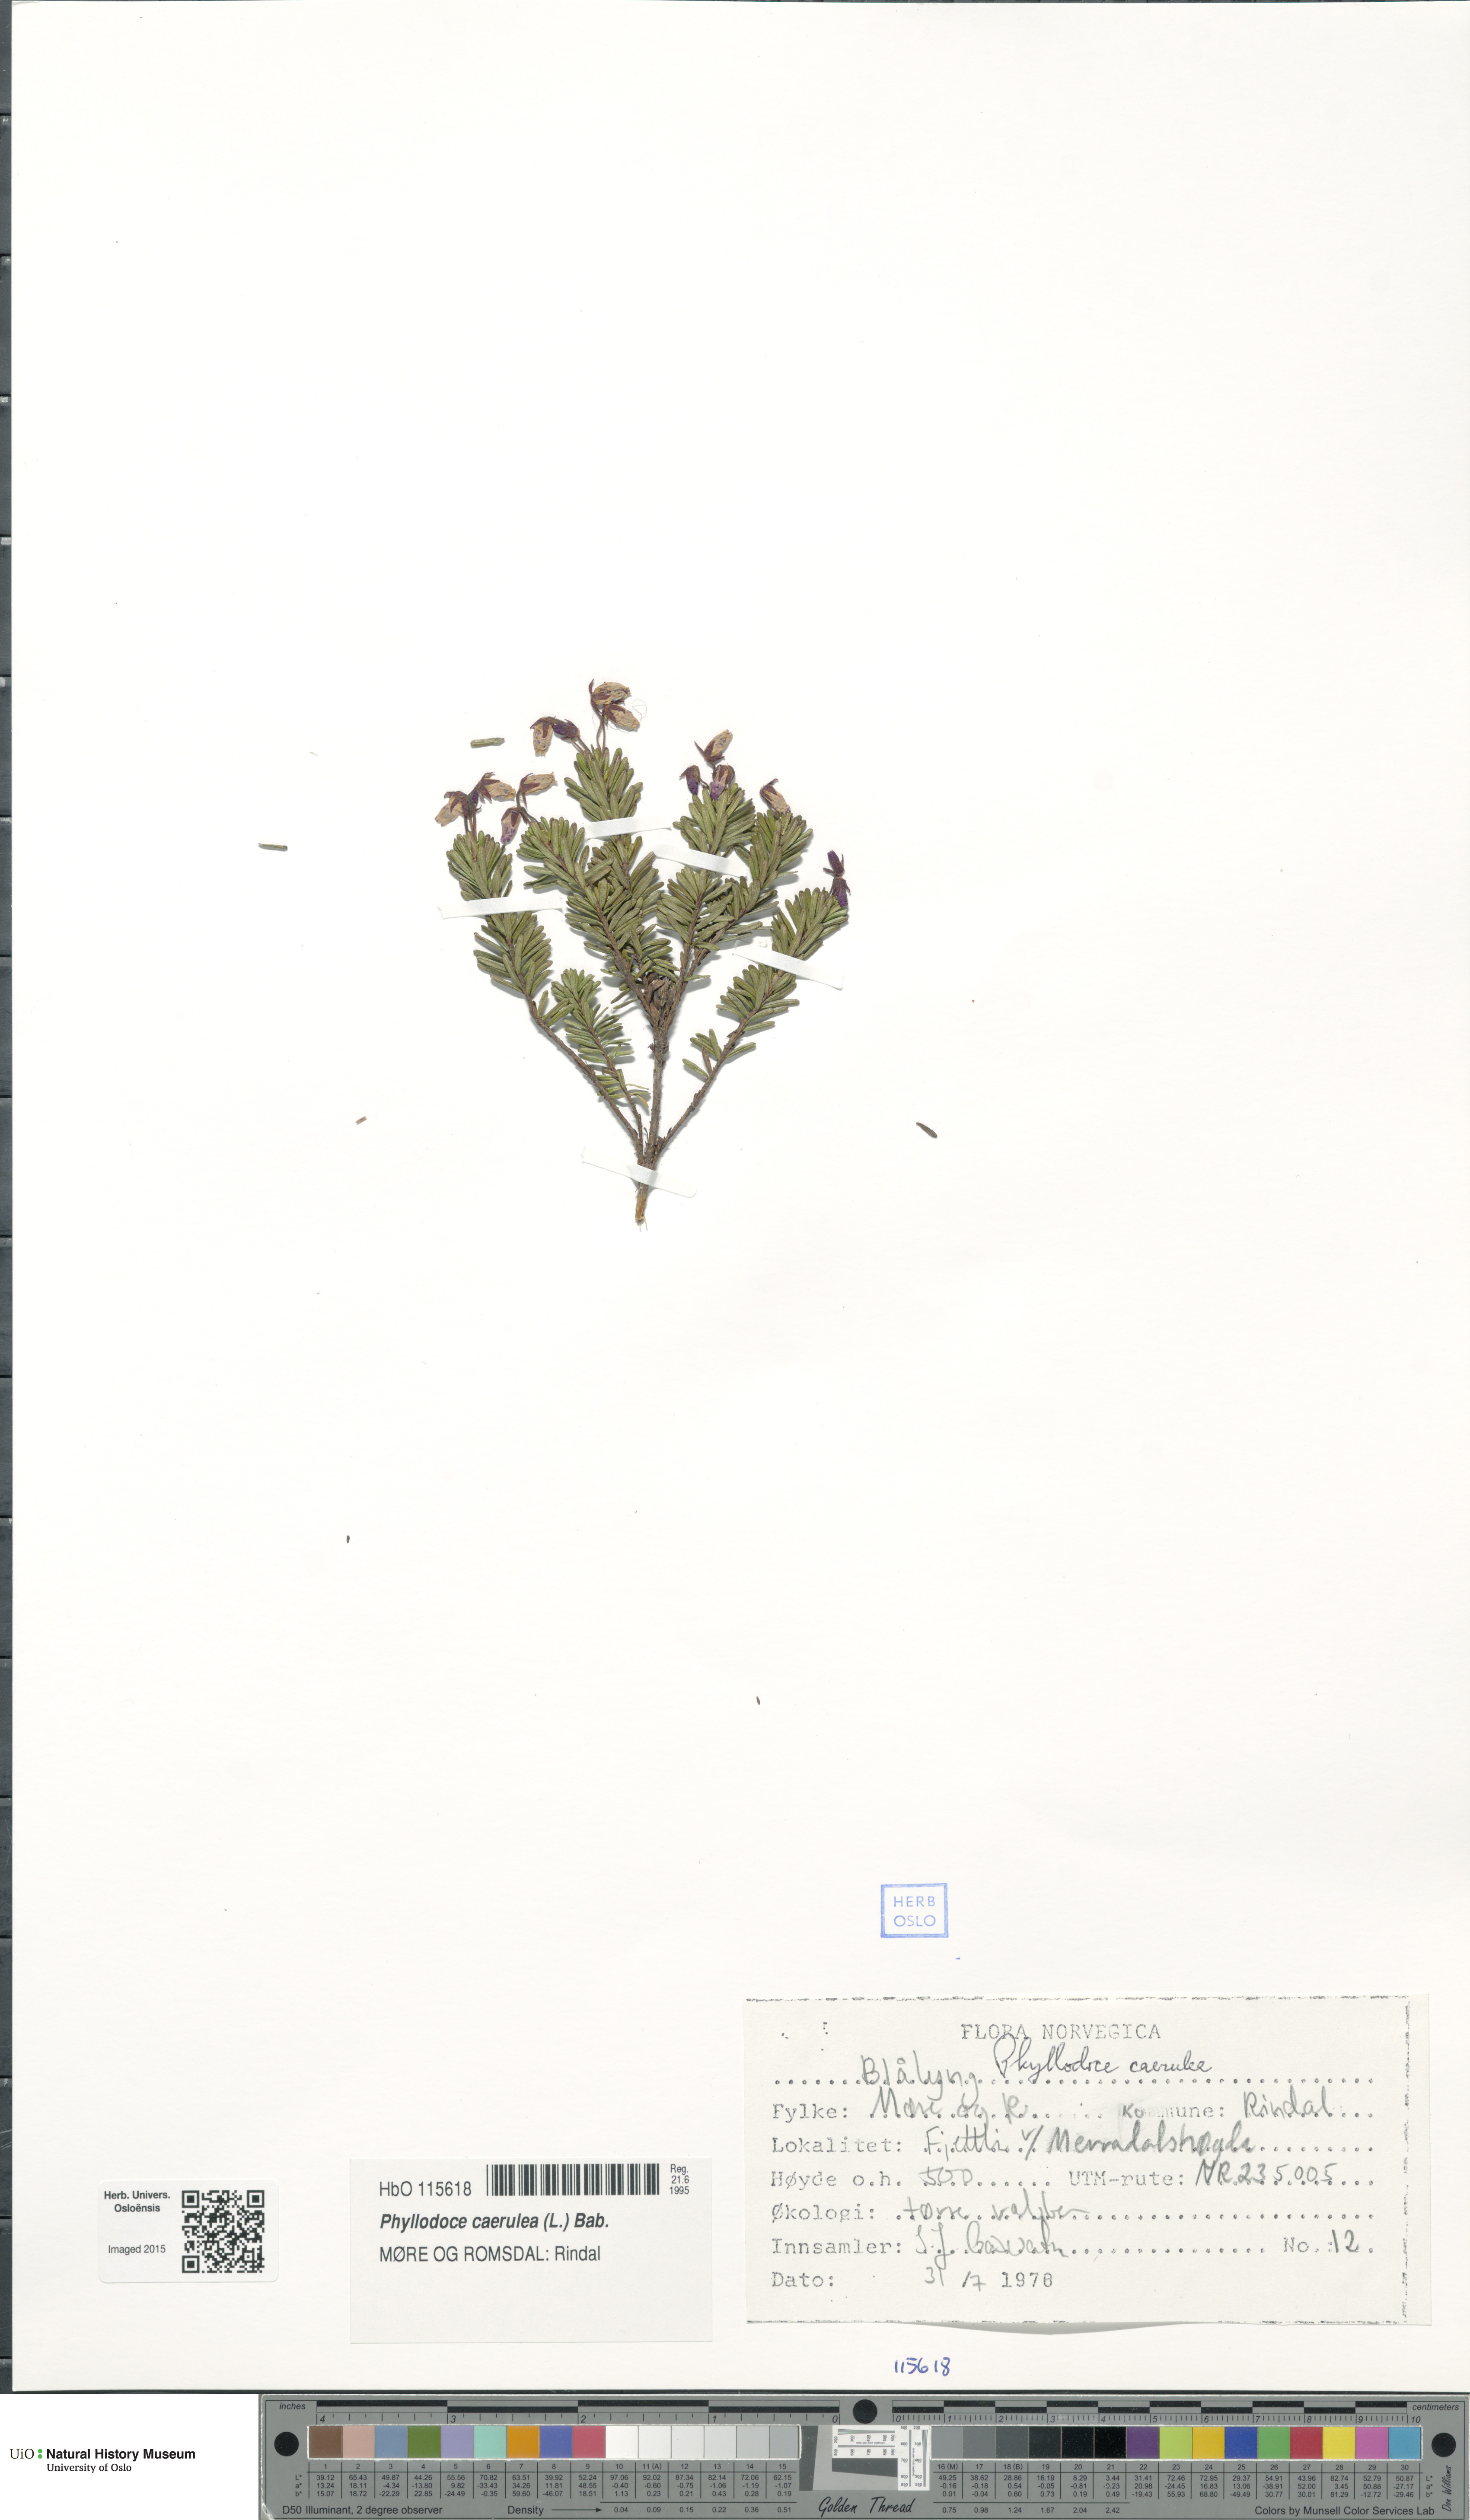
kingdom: Plantae
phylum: Tracheophyta
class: Magnoliopsida
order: Ericales
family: Ericaceae
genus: Phyllodoce
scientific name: Phyllodoce caerulea
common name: Blue heath
